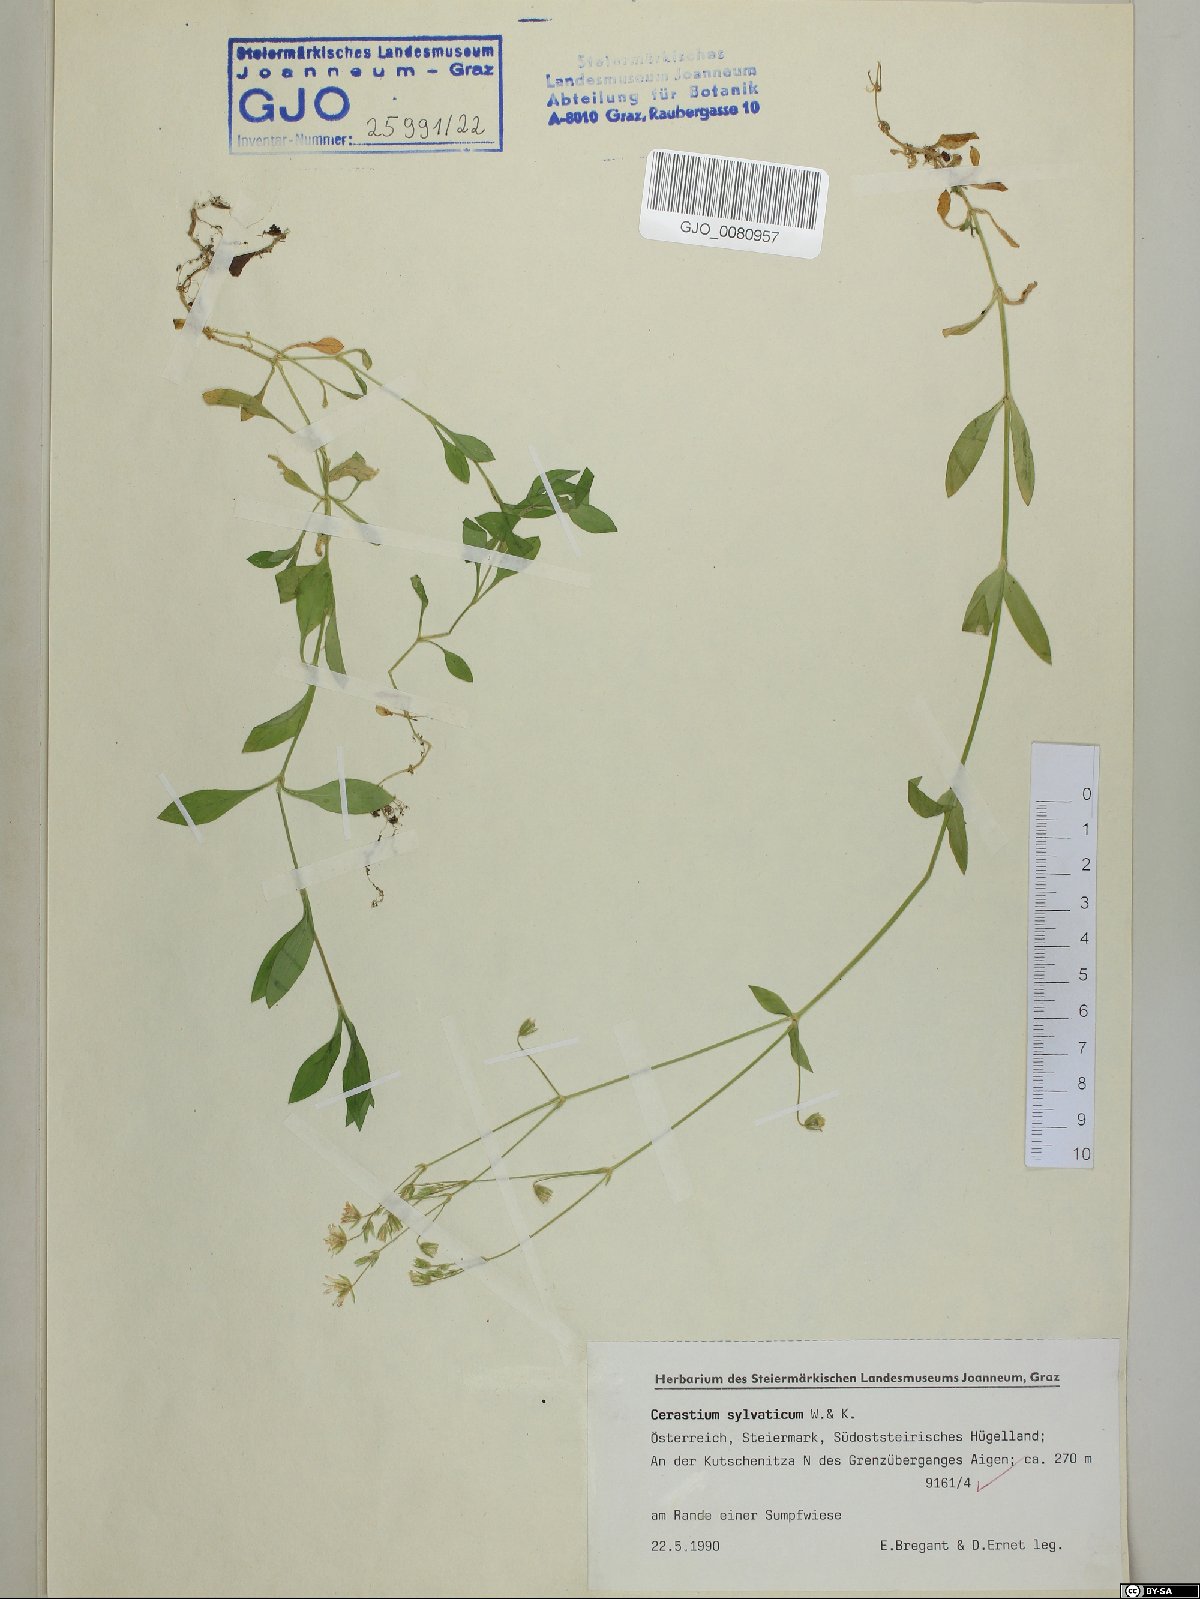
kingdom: Plantae
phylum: Tracheophyta
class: Magnoliopsida
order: Caryophyllales
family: Caryophyllaceae
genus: Cerastium
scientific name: Cerastium sylvaticum
